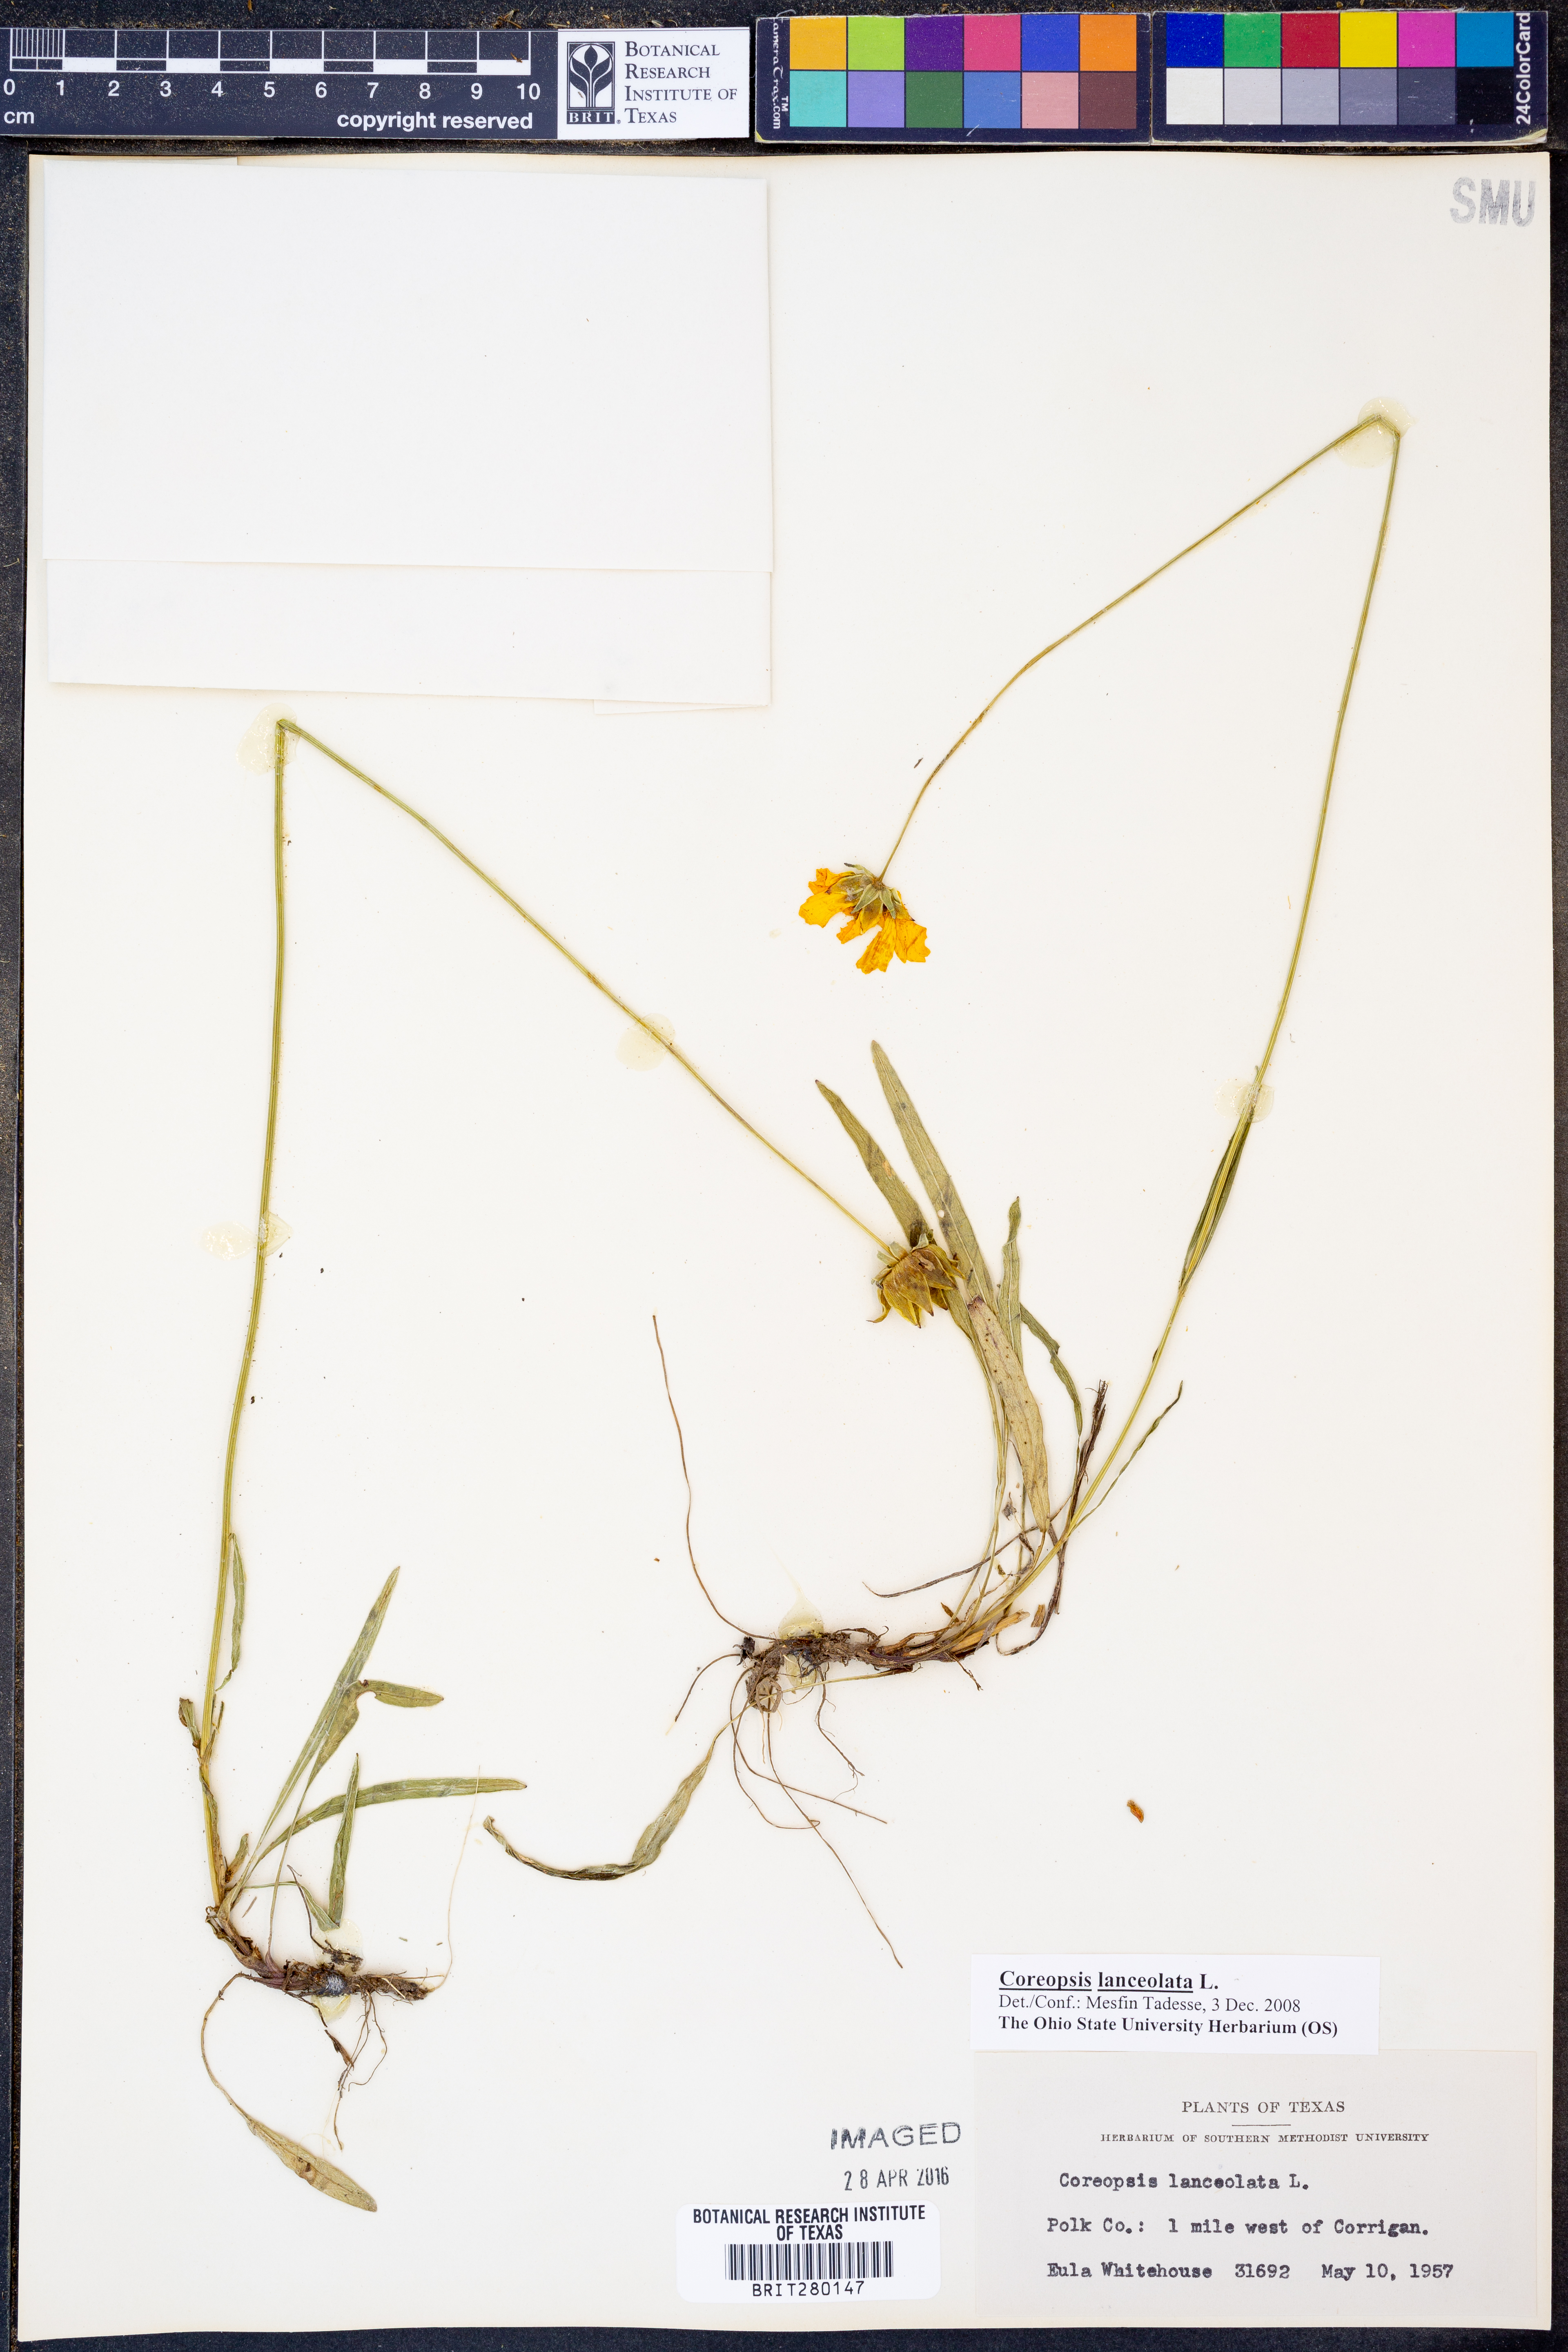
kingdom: Plantae
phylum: Tracheophyta
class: Magnoliopsida
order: Asterales
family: Asteraceae
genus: Coreopsis
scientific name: Coreopsis lanceolata
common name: Garden coreopsis
